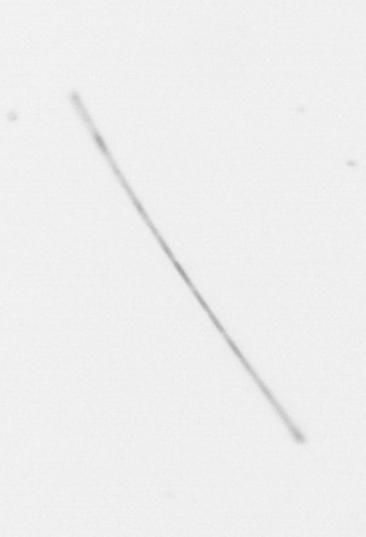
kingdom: Chromista
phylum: Ochrophyta
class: Bacillariophyceae
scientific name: Bacillariophyceae
